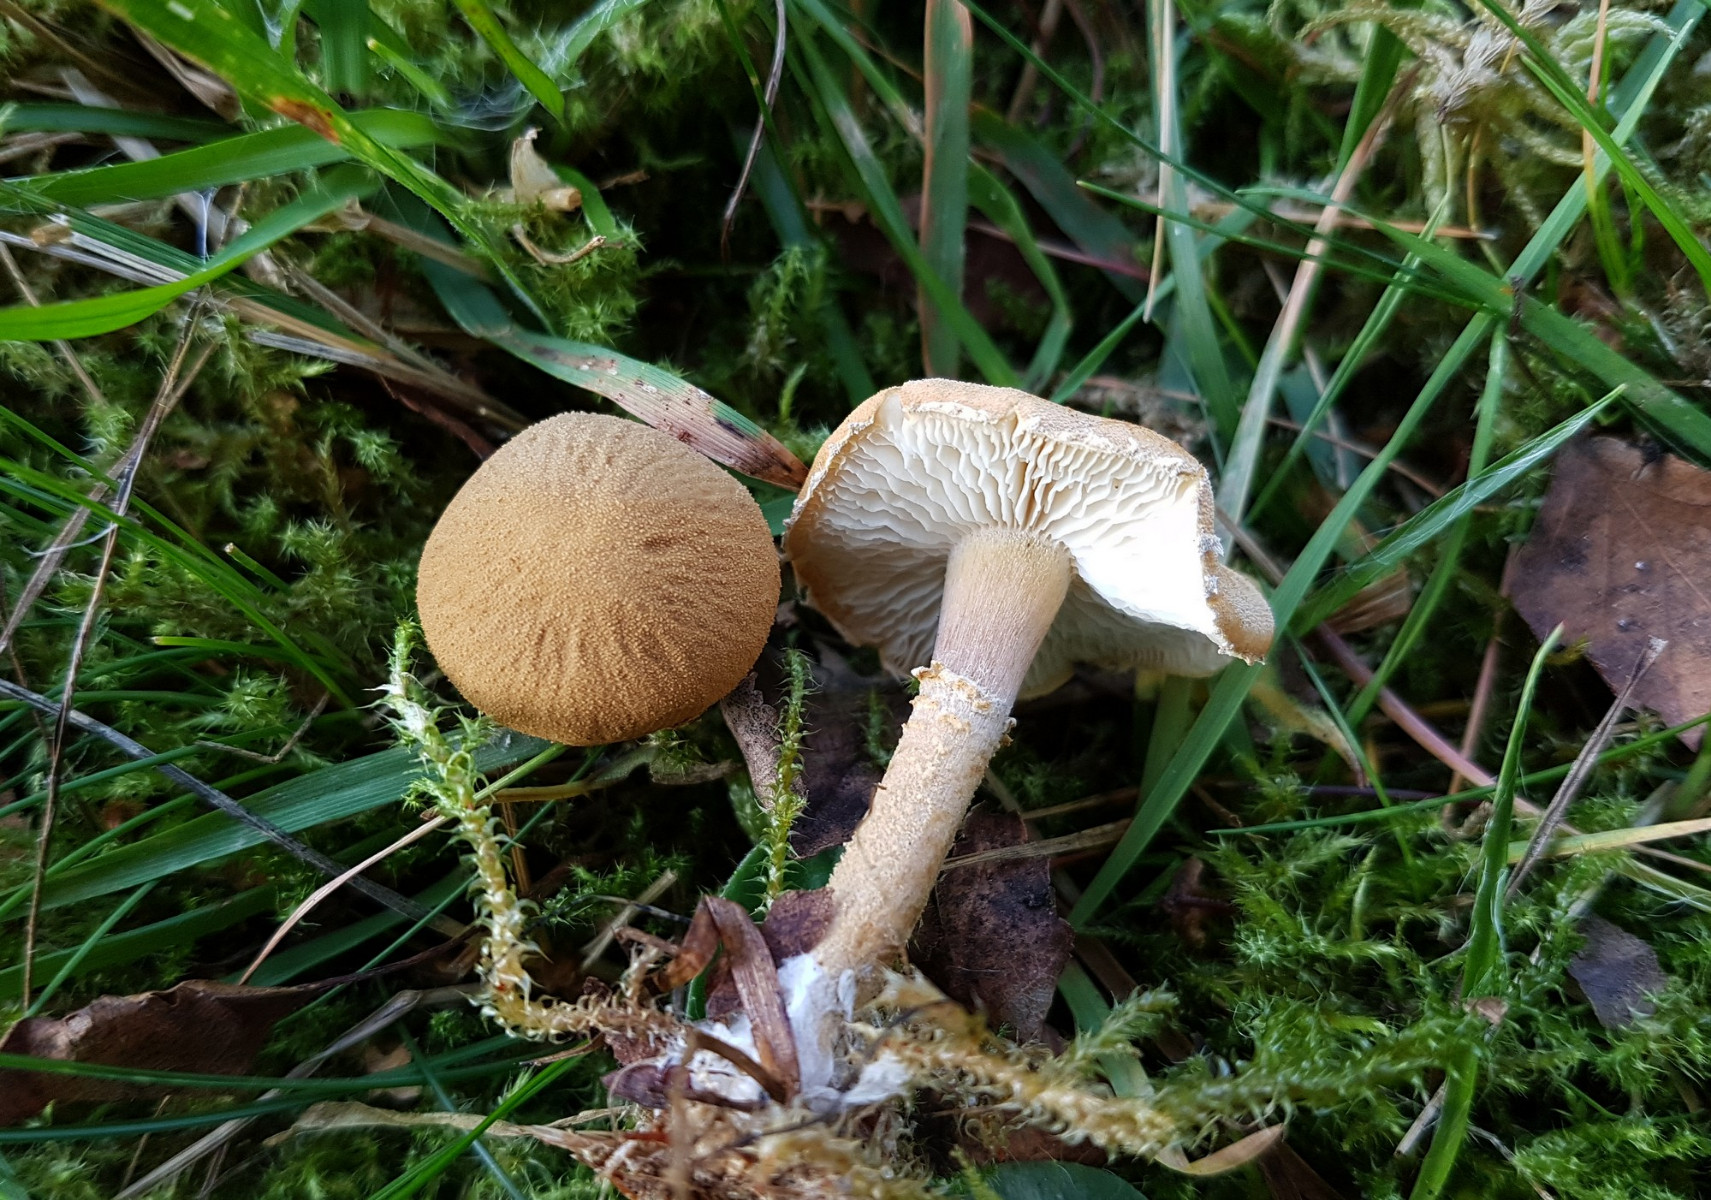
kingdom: Fungi
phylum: Basidiomycota
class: Agaricomycetes
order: Agaricales
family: Tricholomataceae
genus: Cystoderma
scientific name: Cystoderma amianthinum
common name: okkergul grynhat
